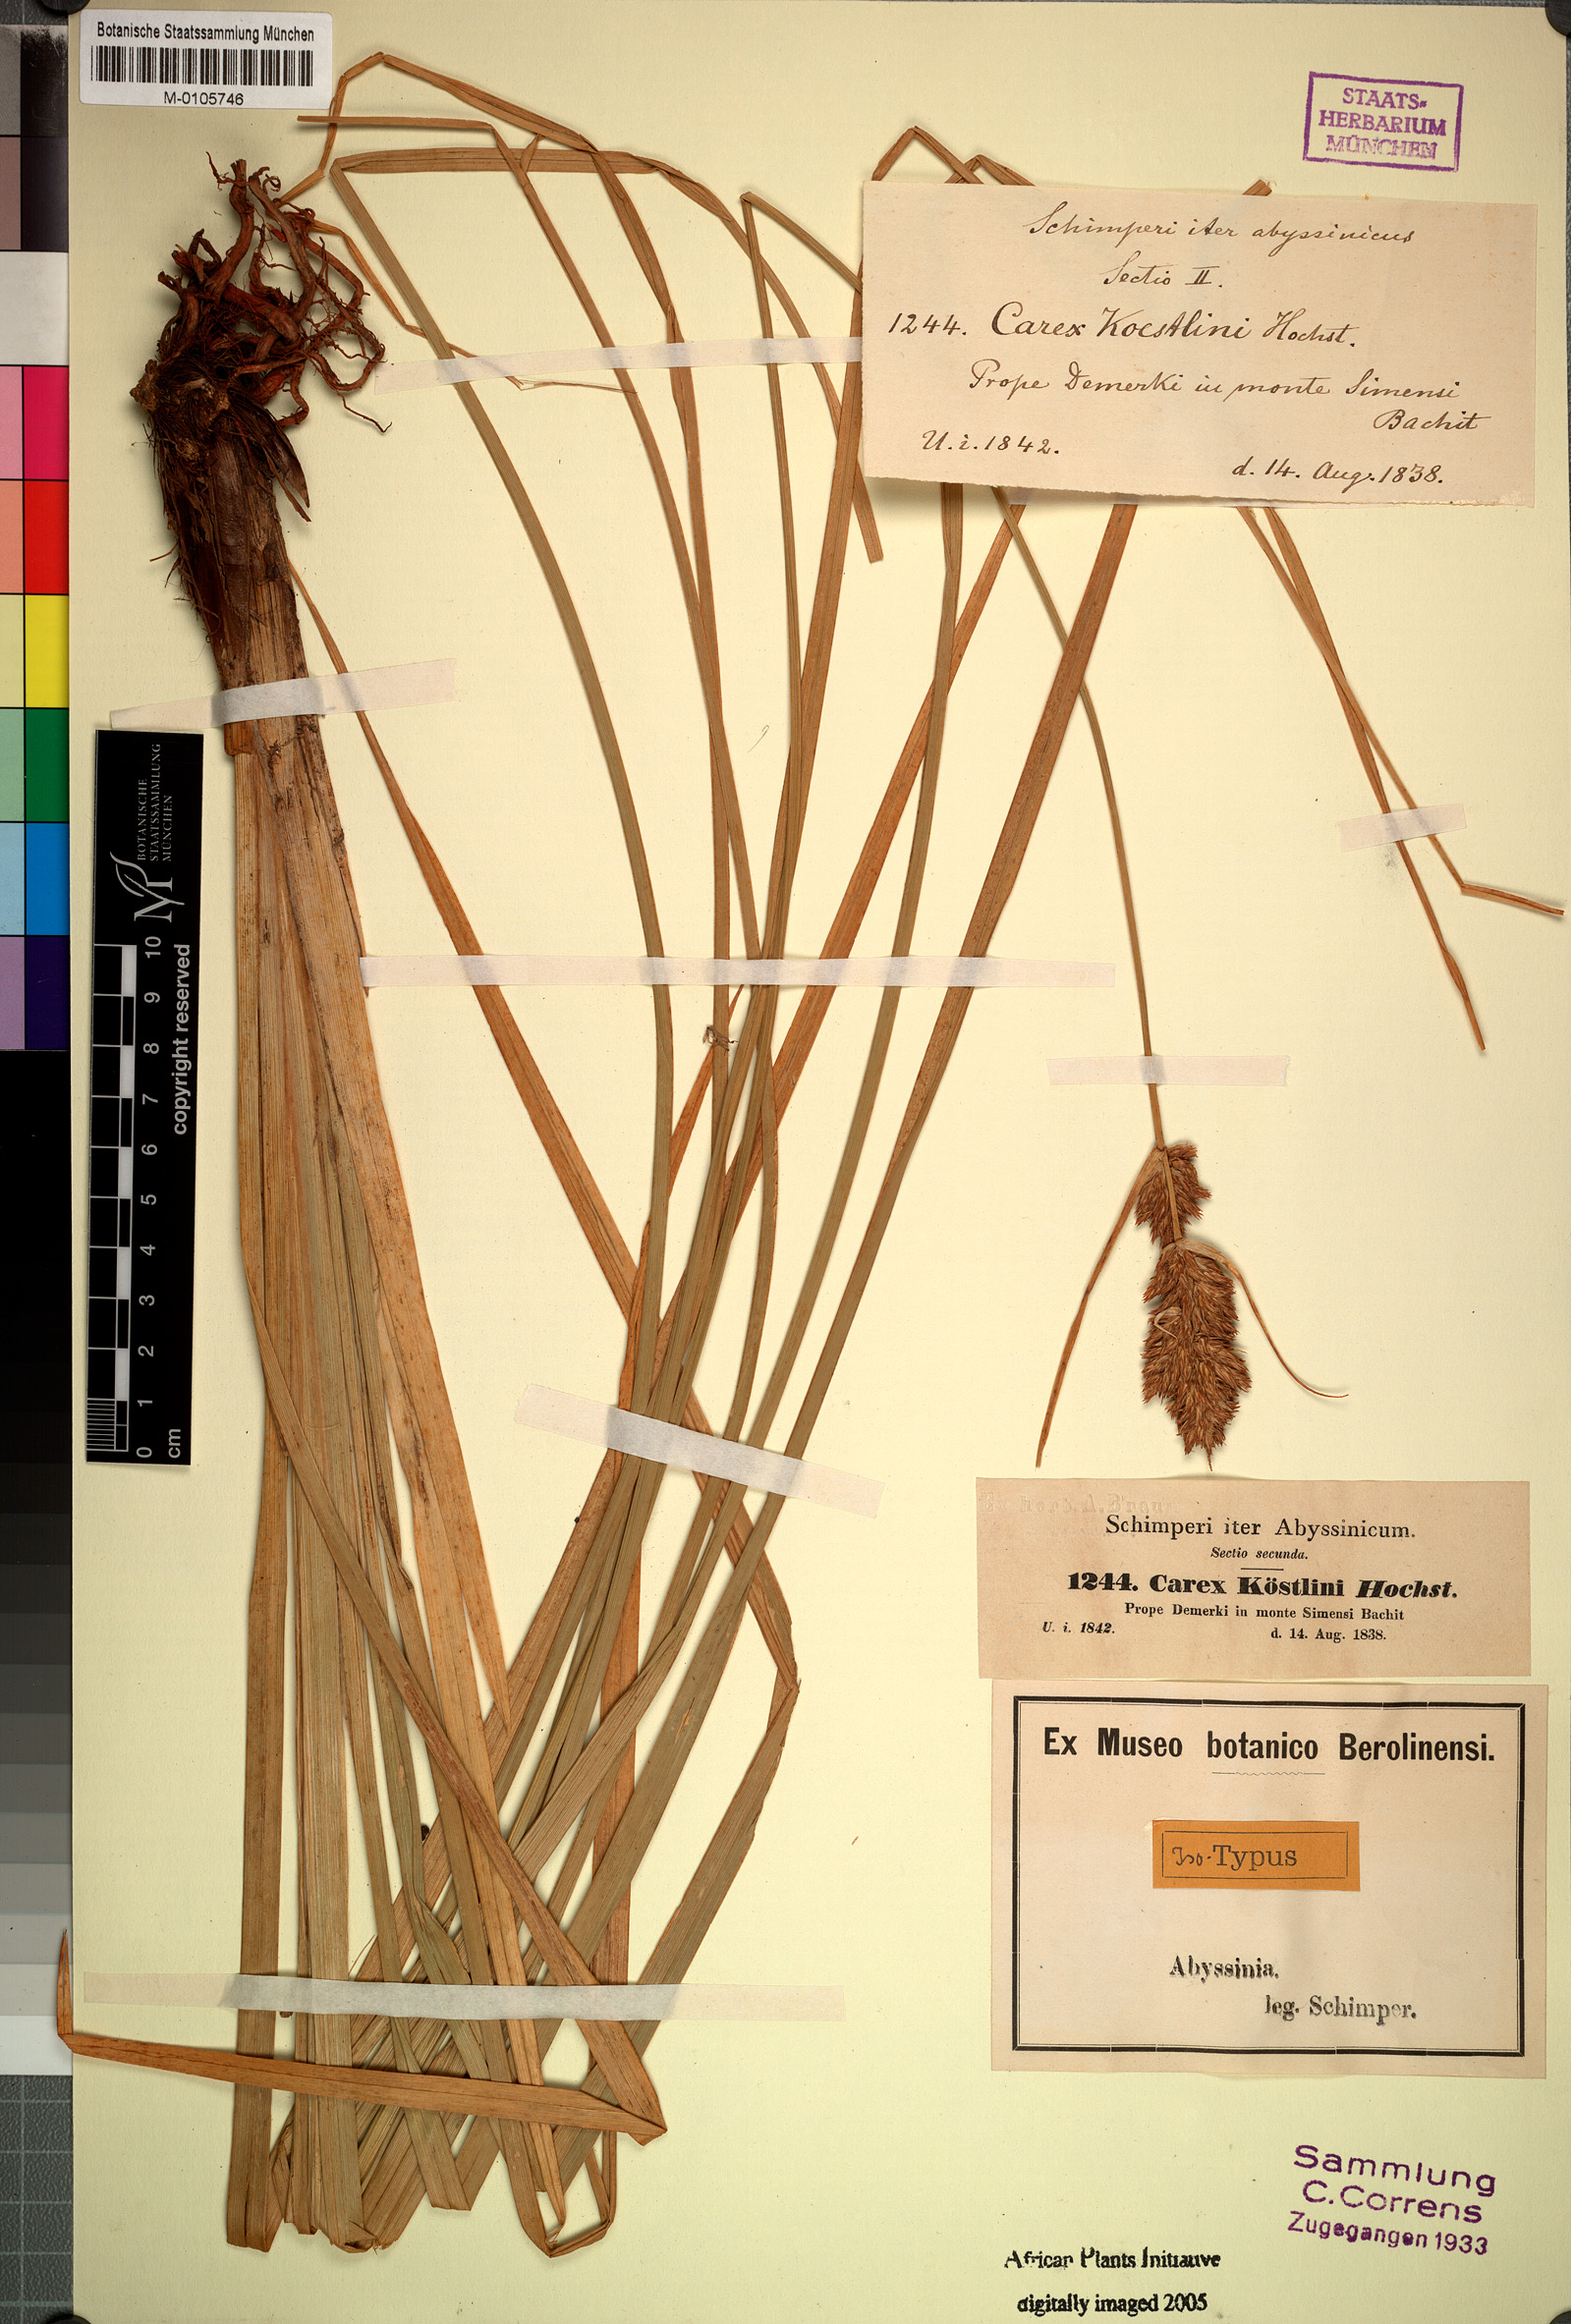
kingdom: Plantae
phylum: Tracheophyta
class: Liliopsida
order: Poales
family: Cyperaceae
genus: Carex
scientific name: Carex
